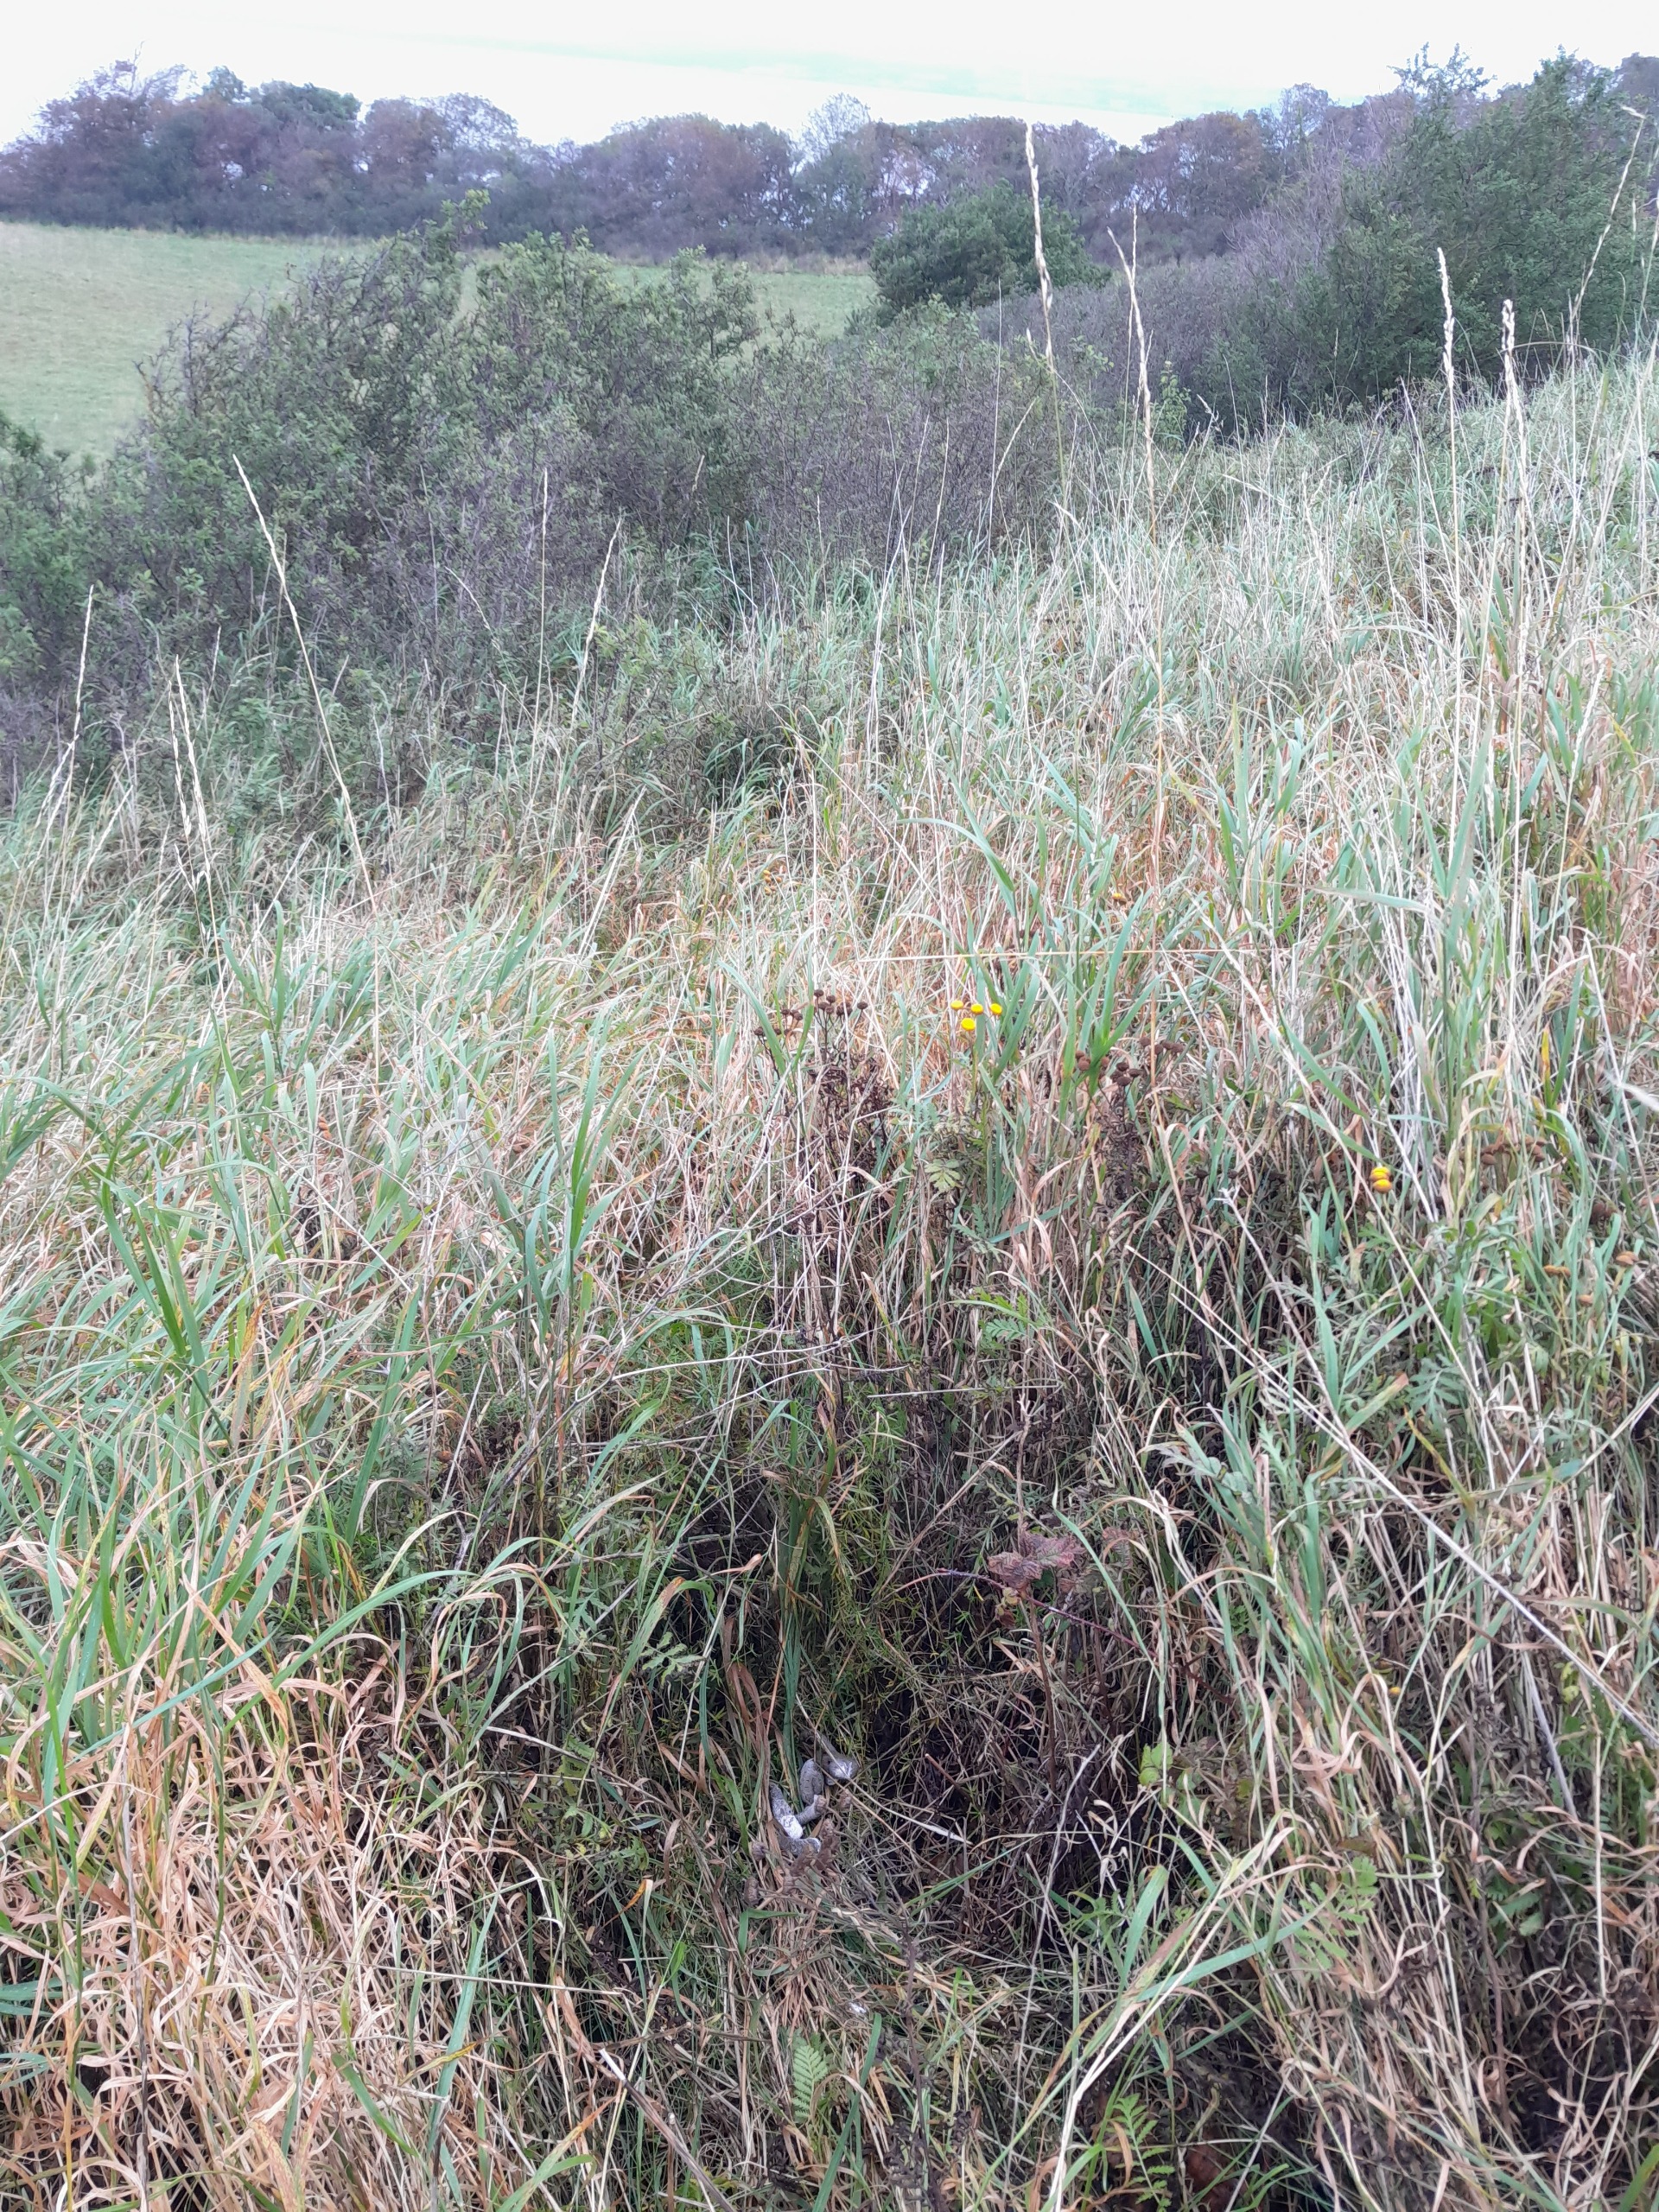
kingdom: Animalia
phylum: Chordata
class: Aves
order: Galliformes
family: Phasianidae
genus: Phasianus
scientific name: Phasianus colchicus
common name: Fasan
